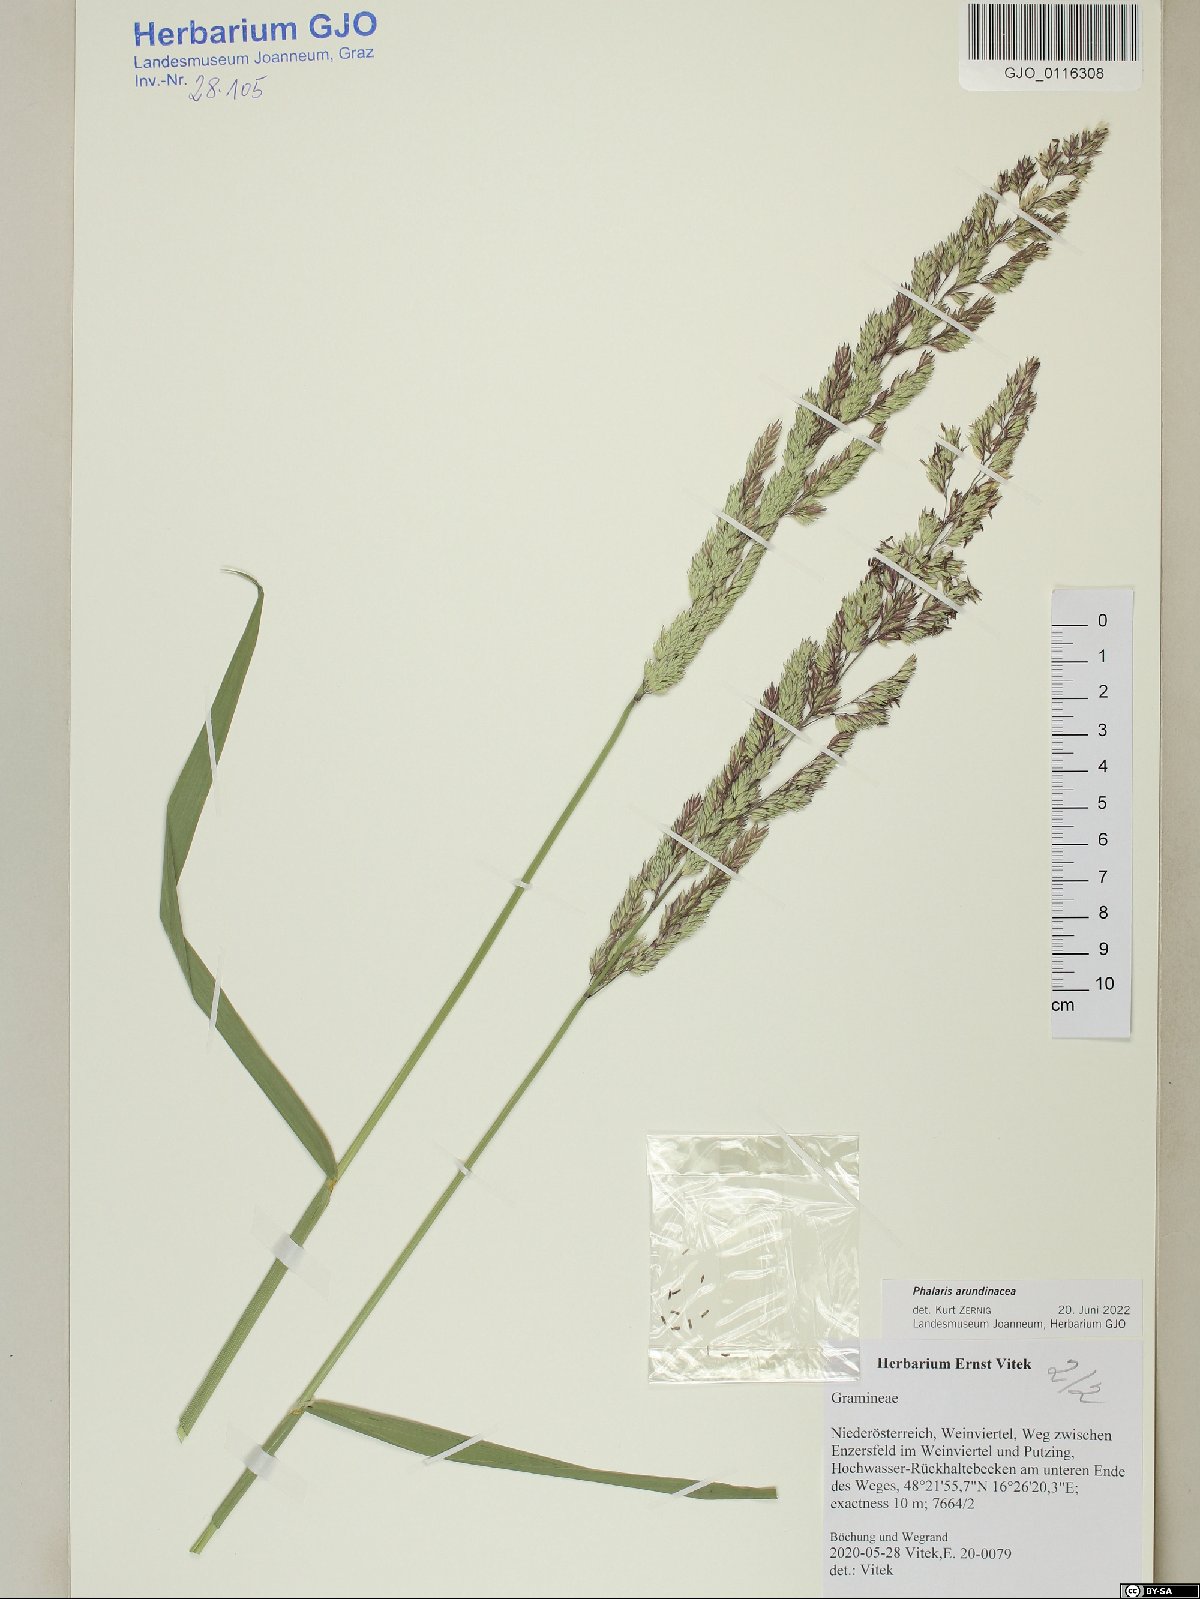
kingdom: Plantae
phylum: Tracheophyta
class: Liliopsida
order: Poales
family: Poaceae
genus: Phalaris
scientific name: Phalaris arundinacea
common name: Reed canary-grass
